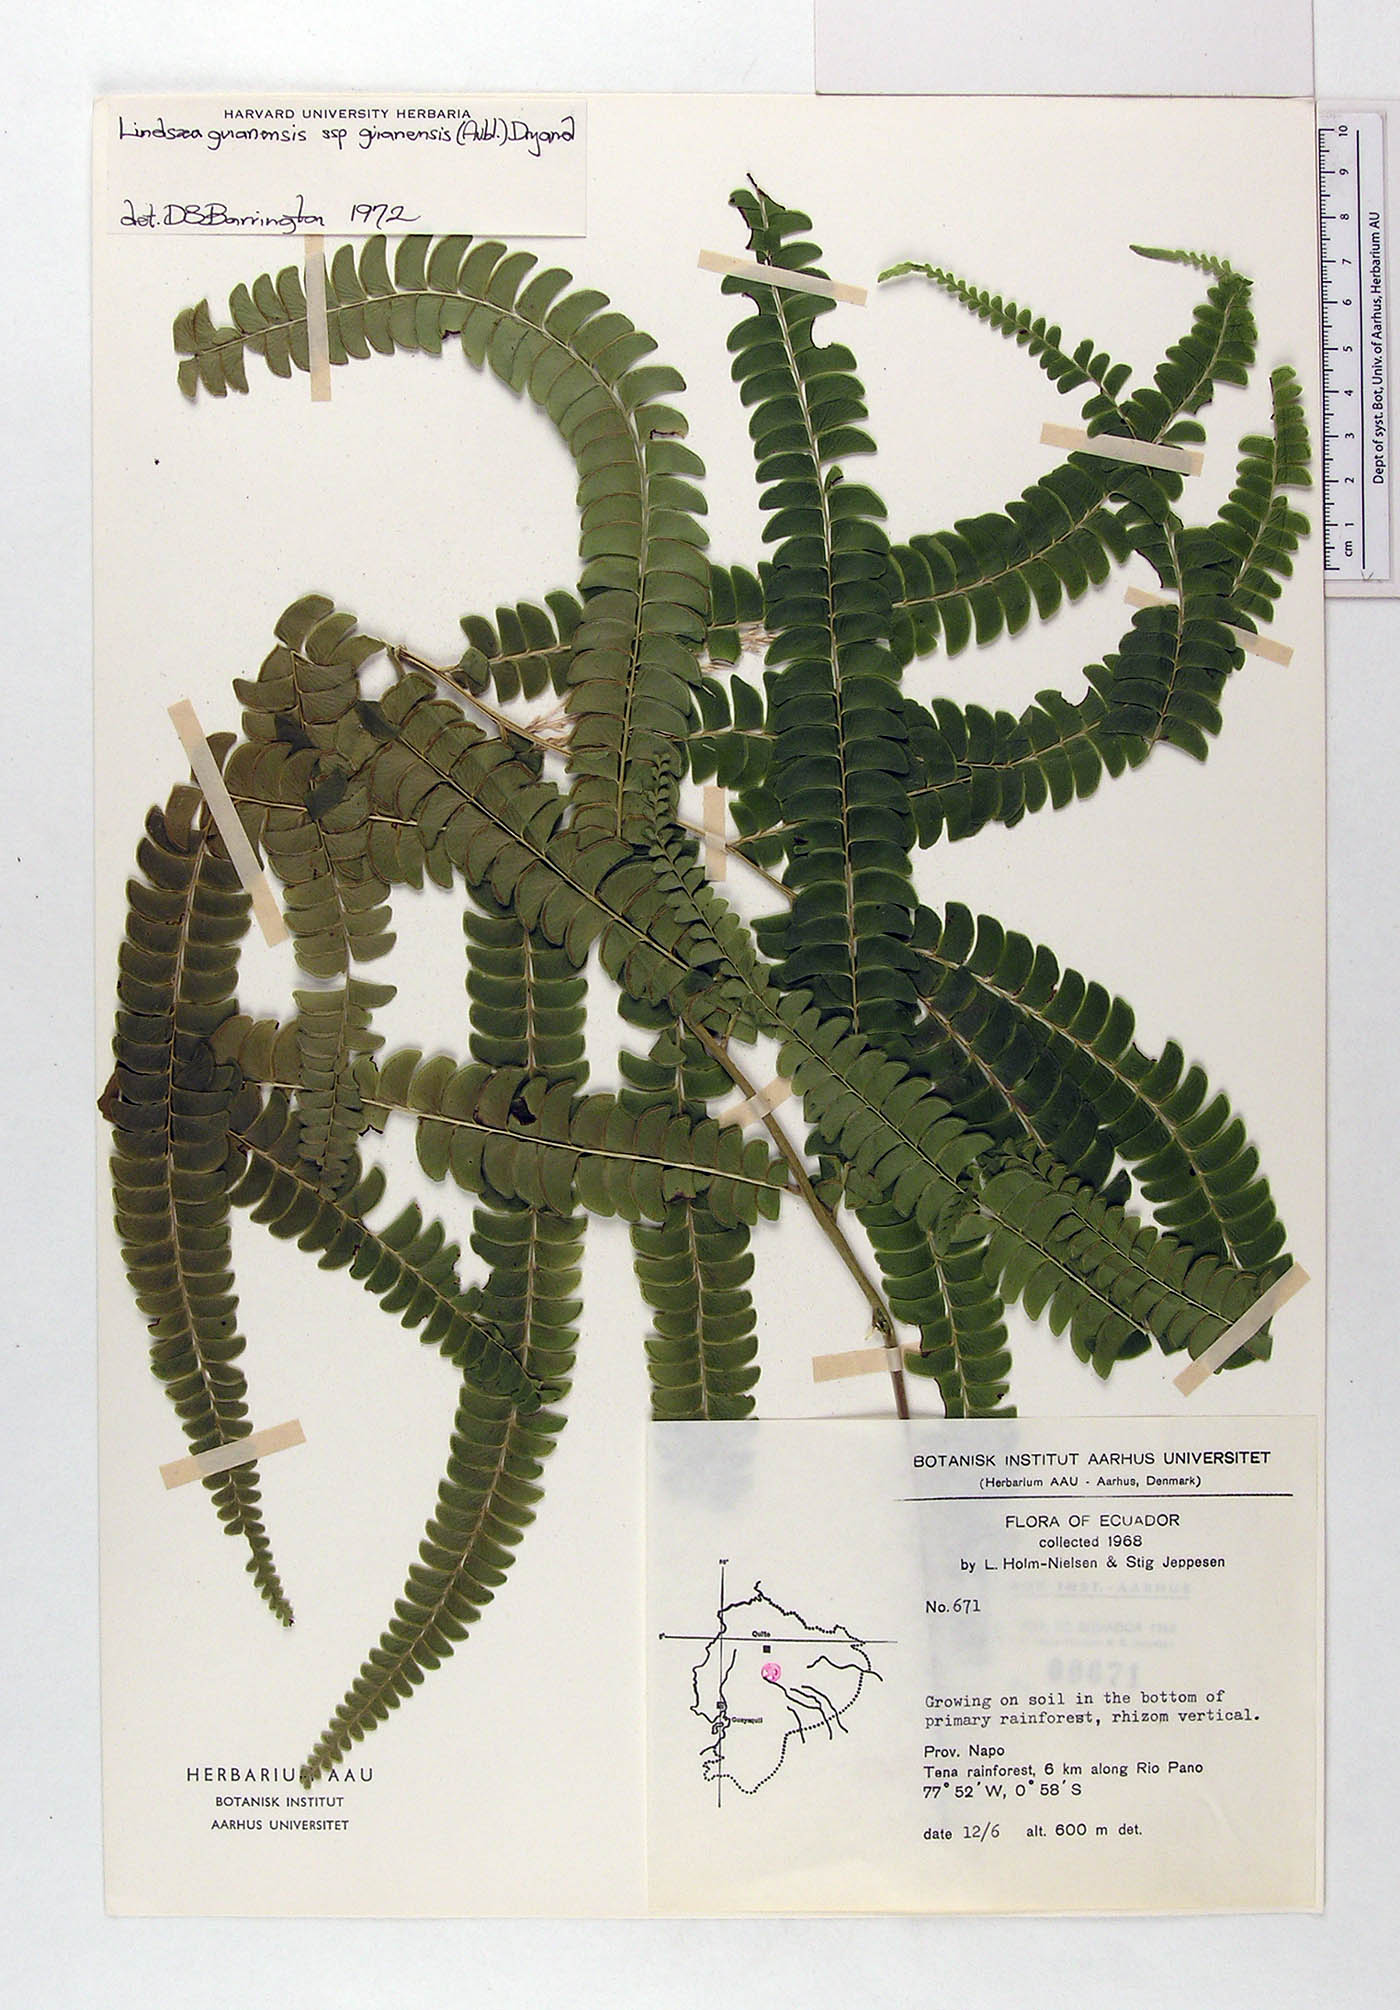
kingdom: Plantae
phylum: Tracheophyta
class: Polypodiopsida
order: Polypodiales
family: Lindsaeaceae
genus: Lindsaea
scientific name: Lindsaea guianensis
